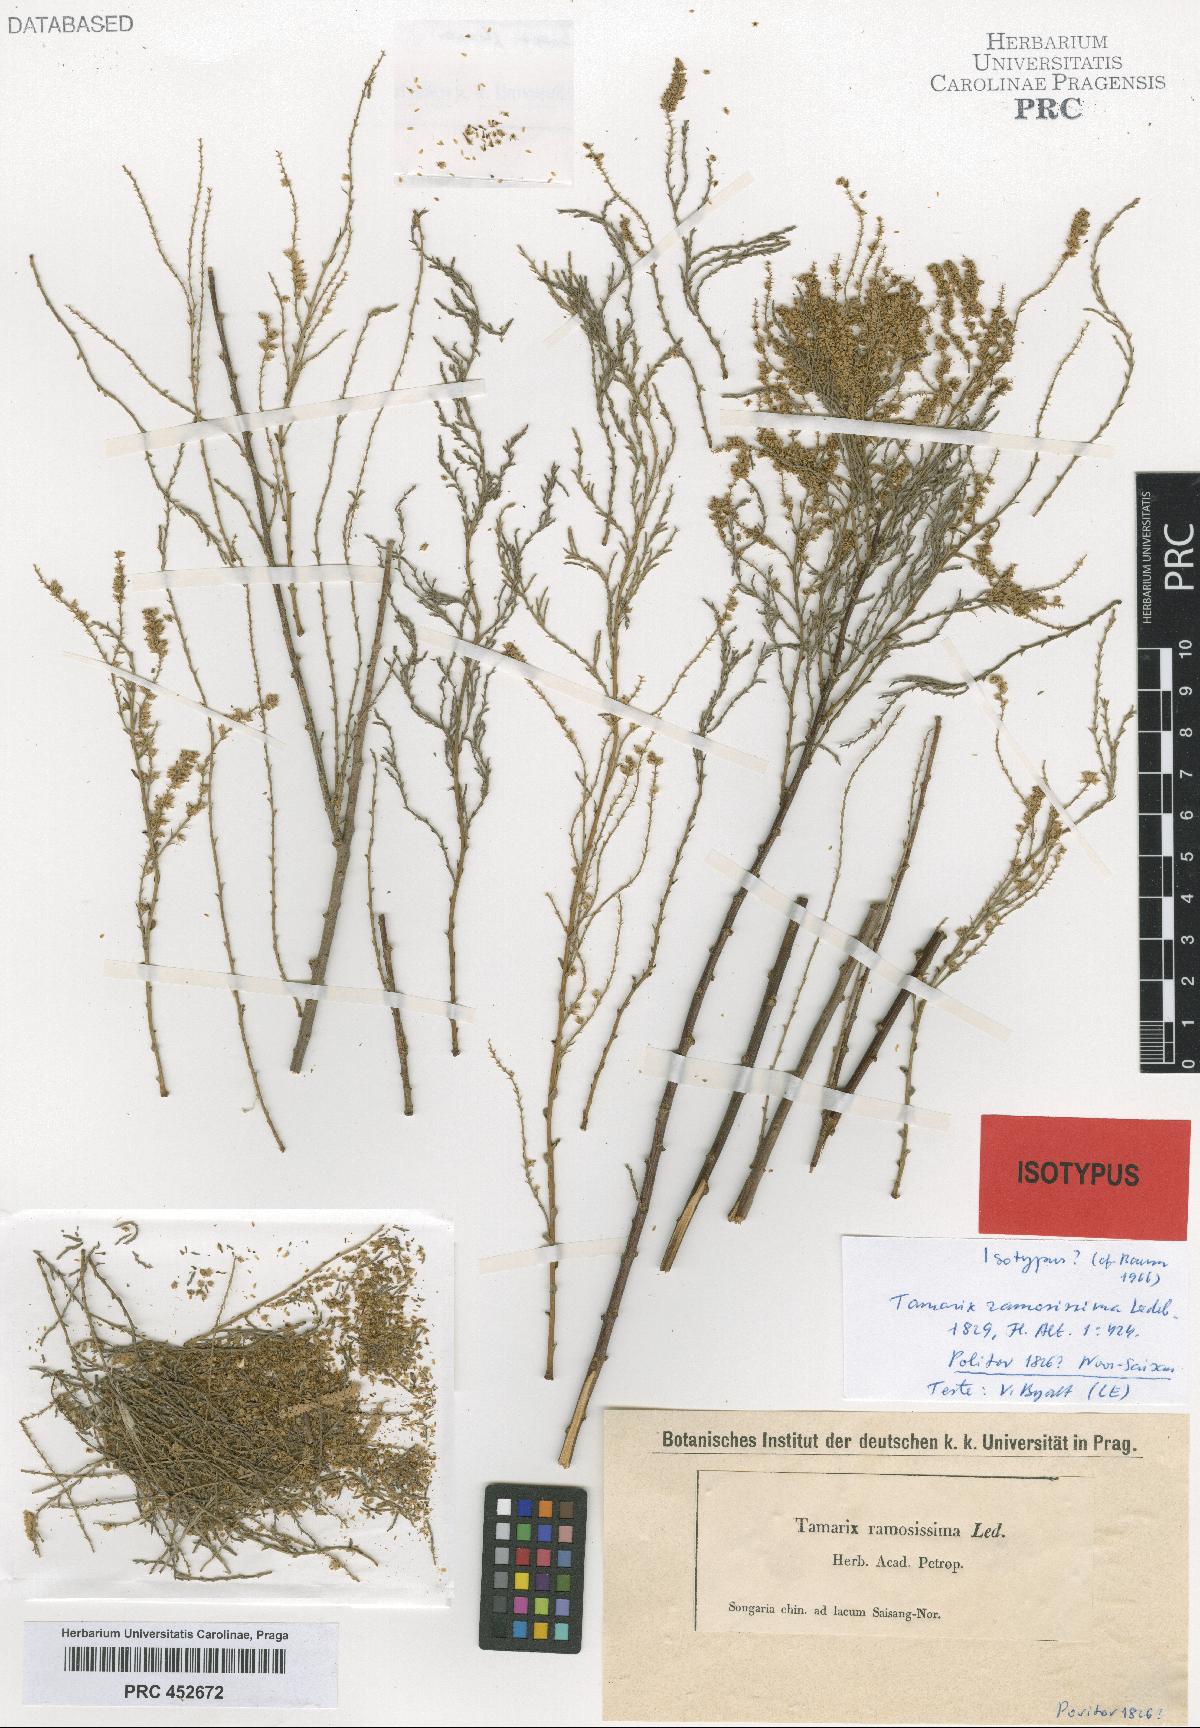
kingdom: Plantae
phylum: Tracheophyta
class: Magnoliopsida
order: Caryophyllales
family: Tamaricaceae
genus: Tamarix
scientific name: Tamarix ramosissima
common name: Pink tamarisk
